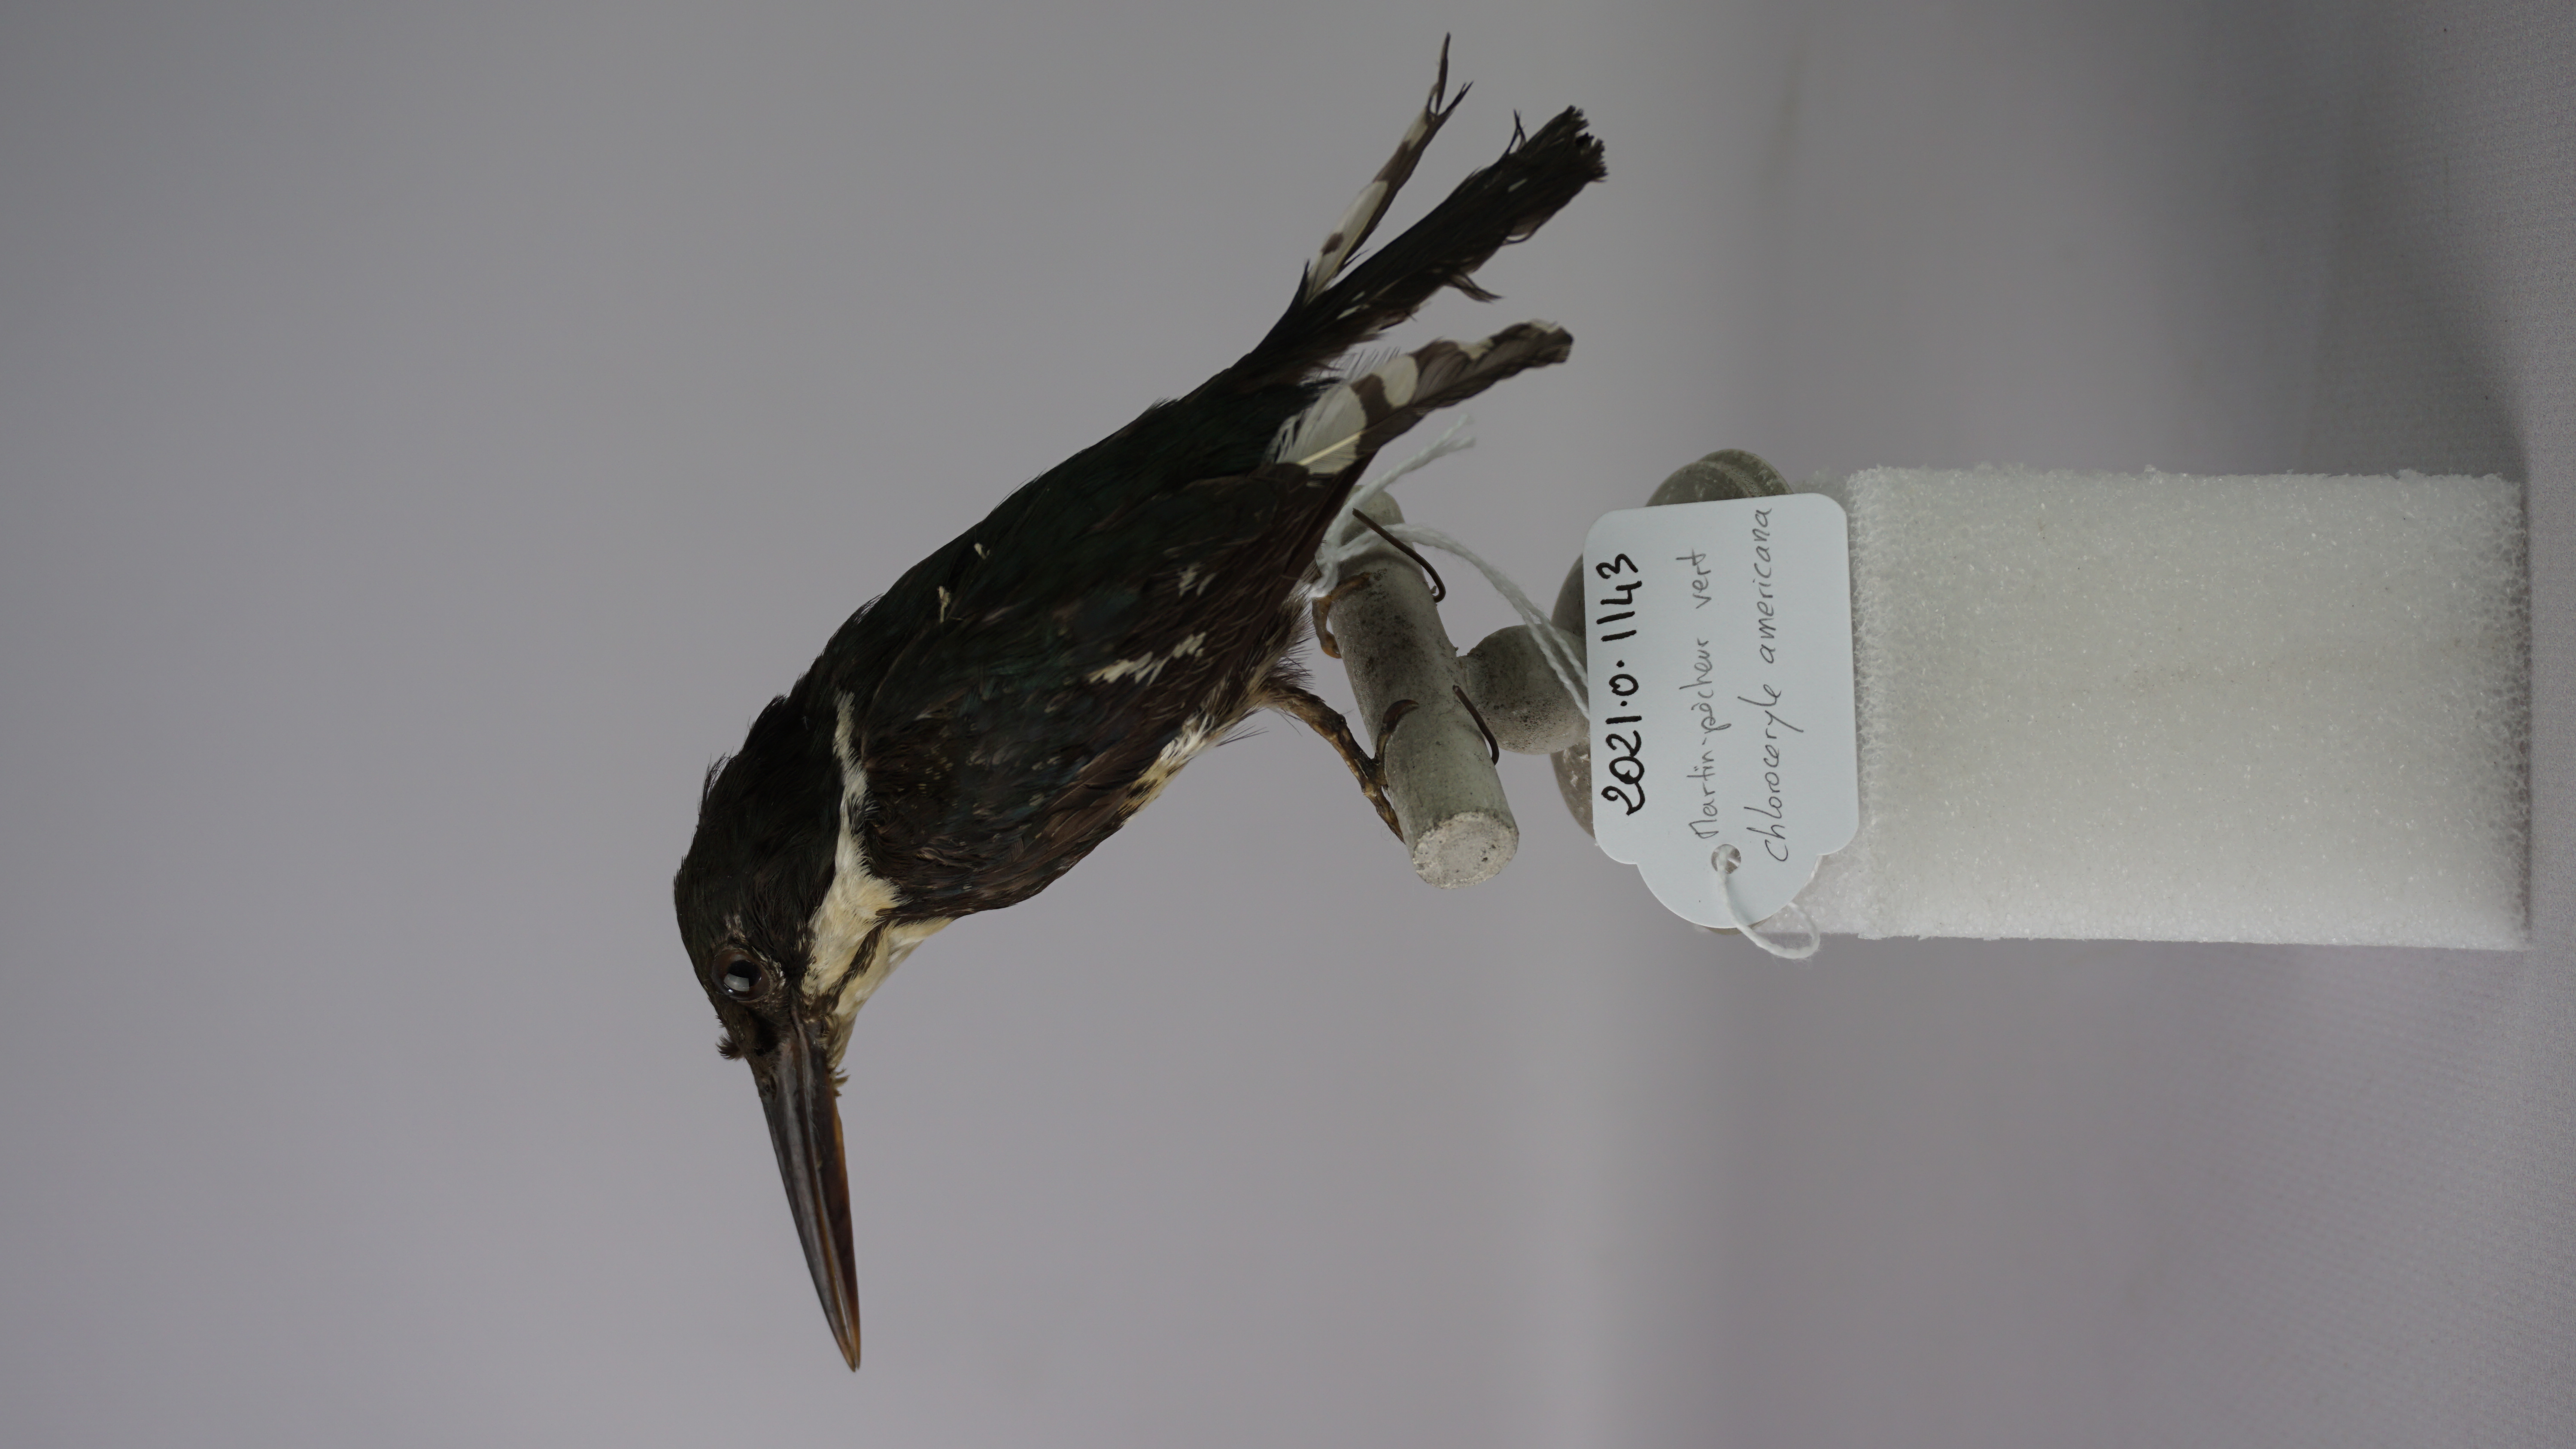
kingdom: Animalia
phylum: Chordata
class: Aves
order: Coraciiformes
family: Alcedinidae
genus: Chloroceryle
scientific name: Chloroceryle americana
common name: Green kingfisher
